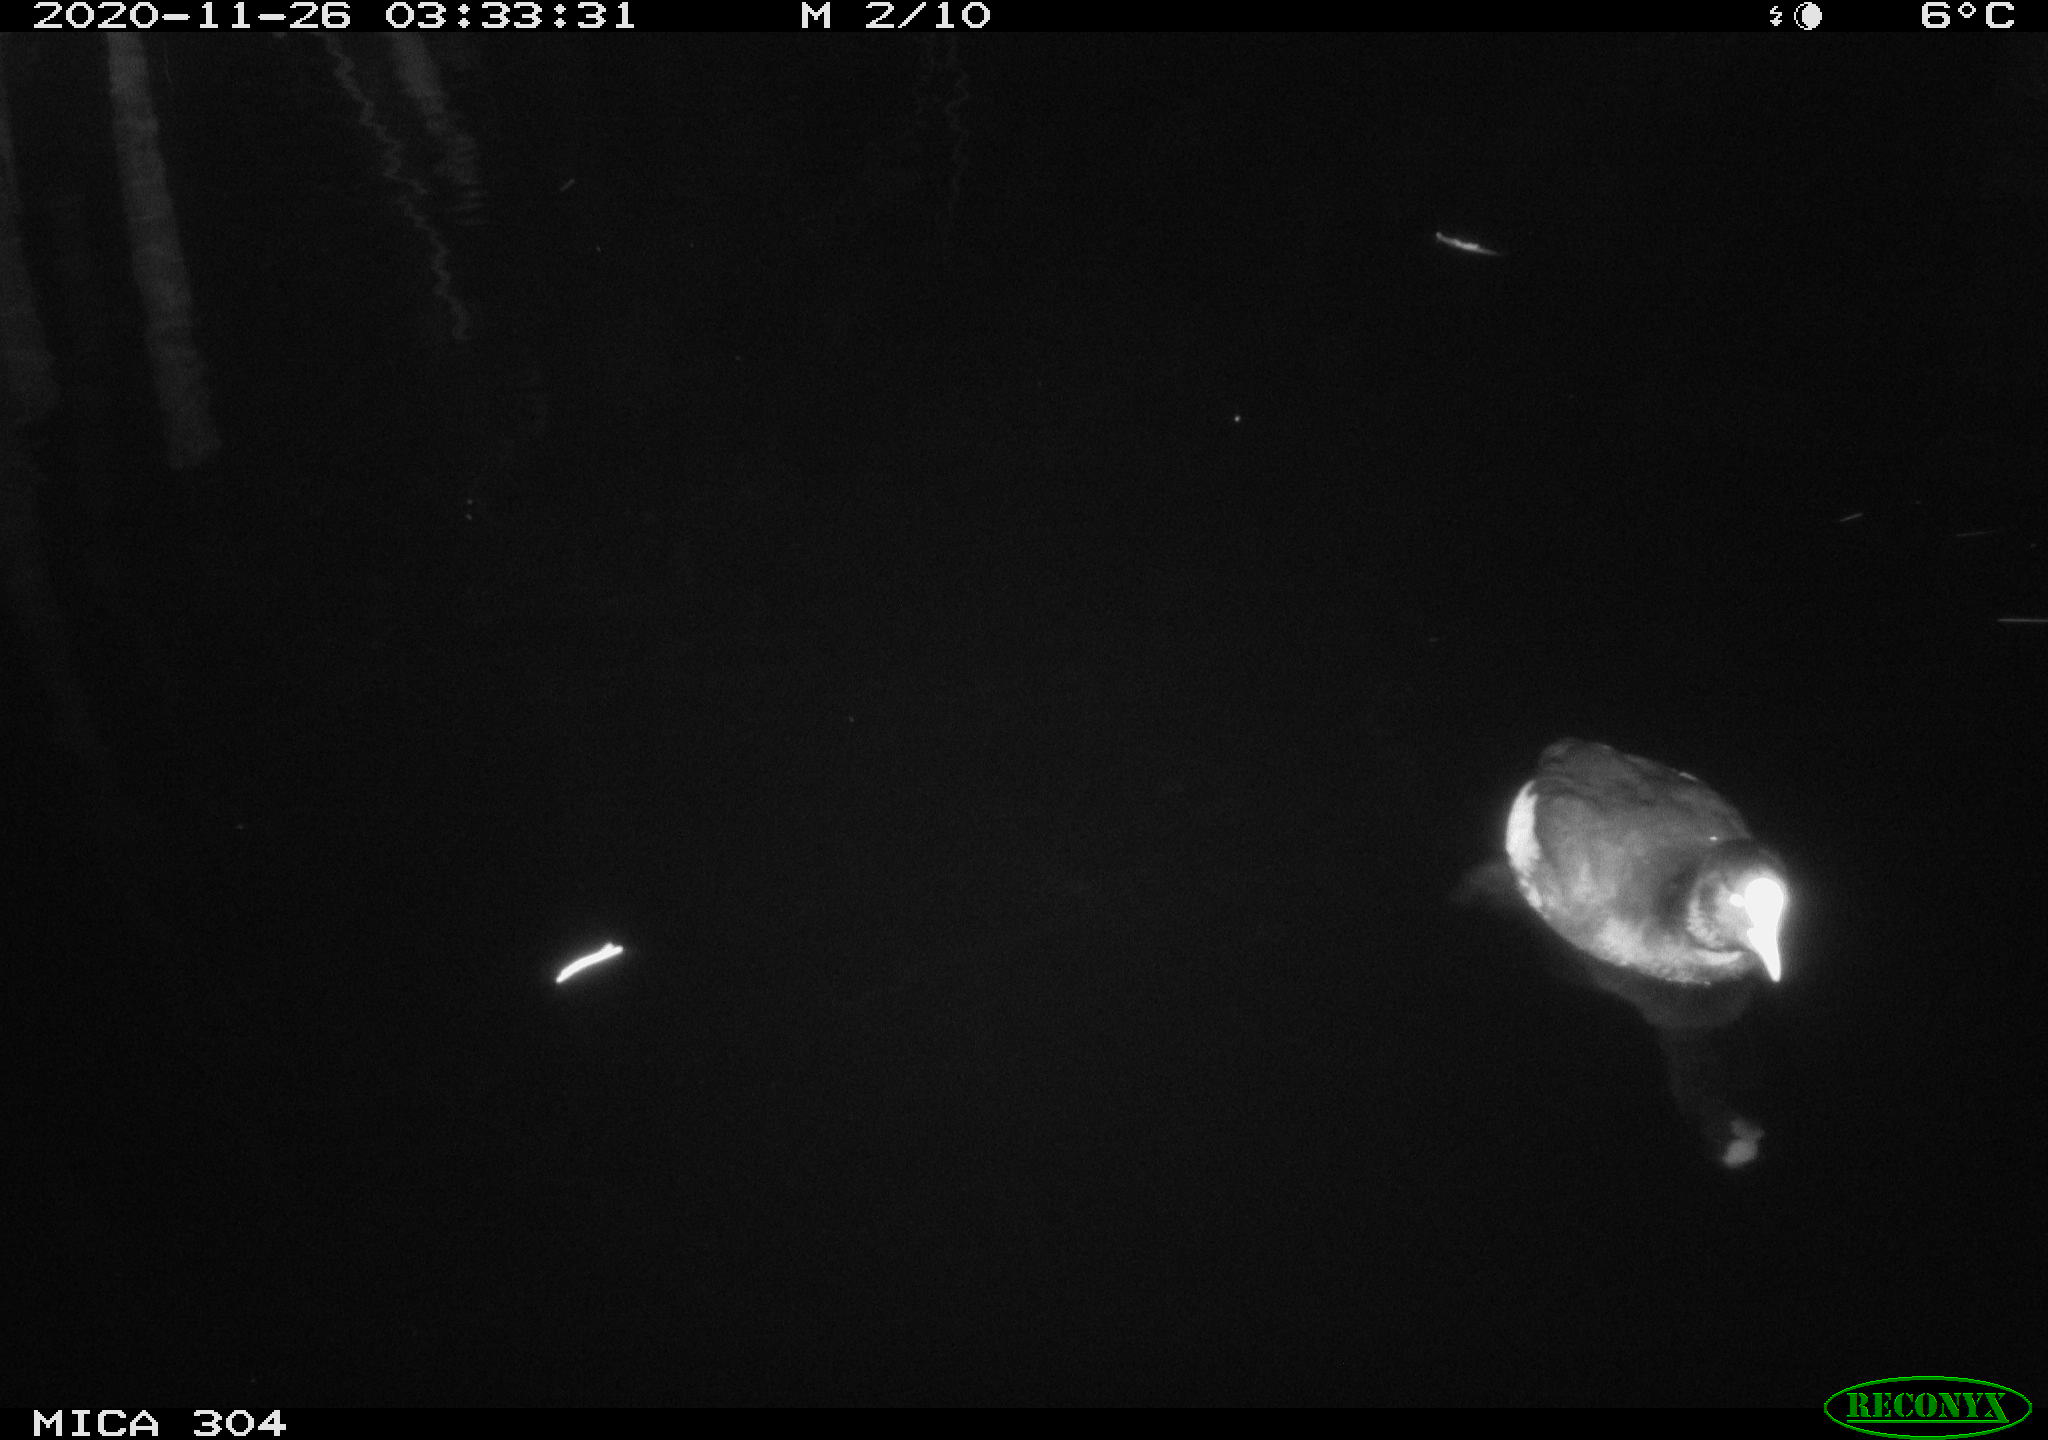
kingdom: Animalia
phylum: Chordata
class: Aves
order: Gruiformes
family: Rallidae
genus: Gallinula
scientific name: Gallinula chloropus
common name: Common moorhen
